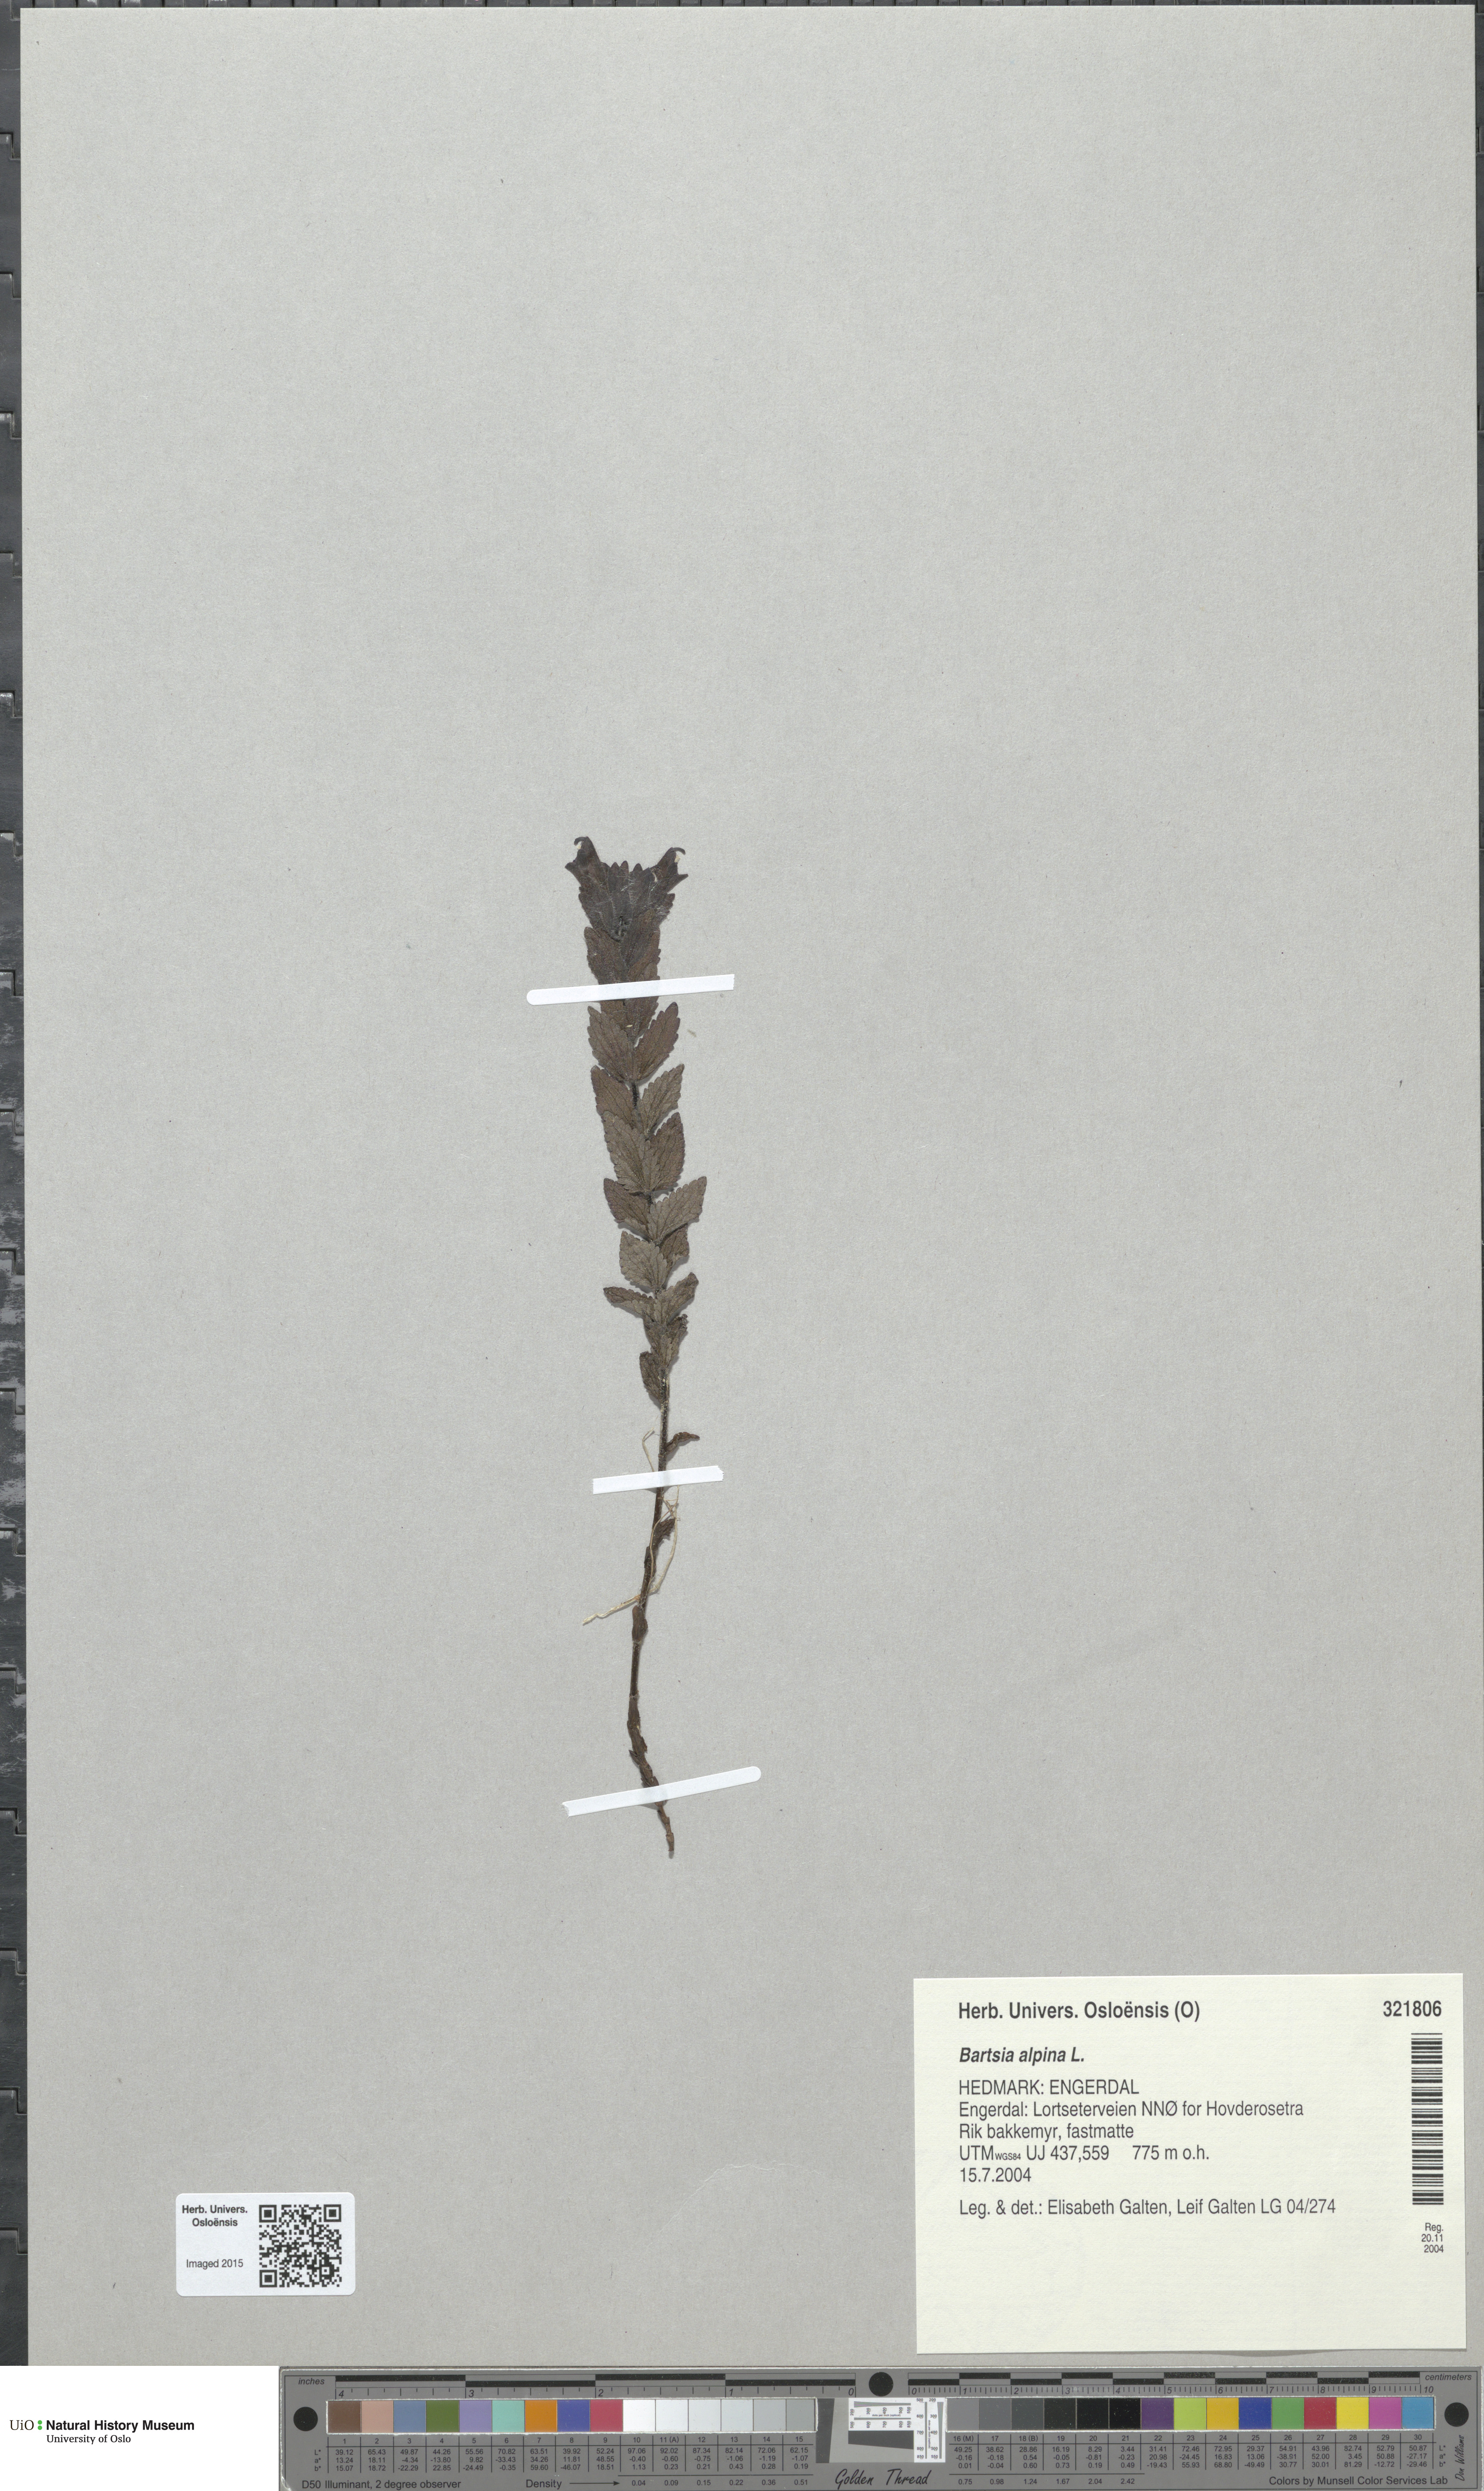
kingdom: Plantae
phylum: Tracheophyta
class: Magnoliopsida
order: Lamiales
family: Orobanchaceae
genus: Bartsia
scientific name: Bartsia alpina
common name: Alpine bartsia
